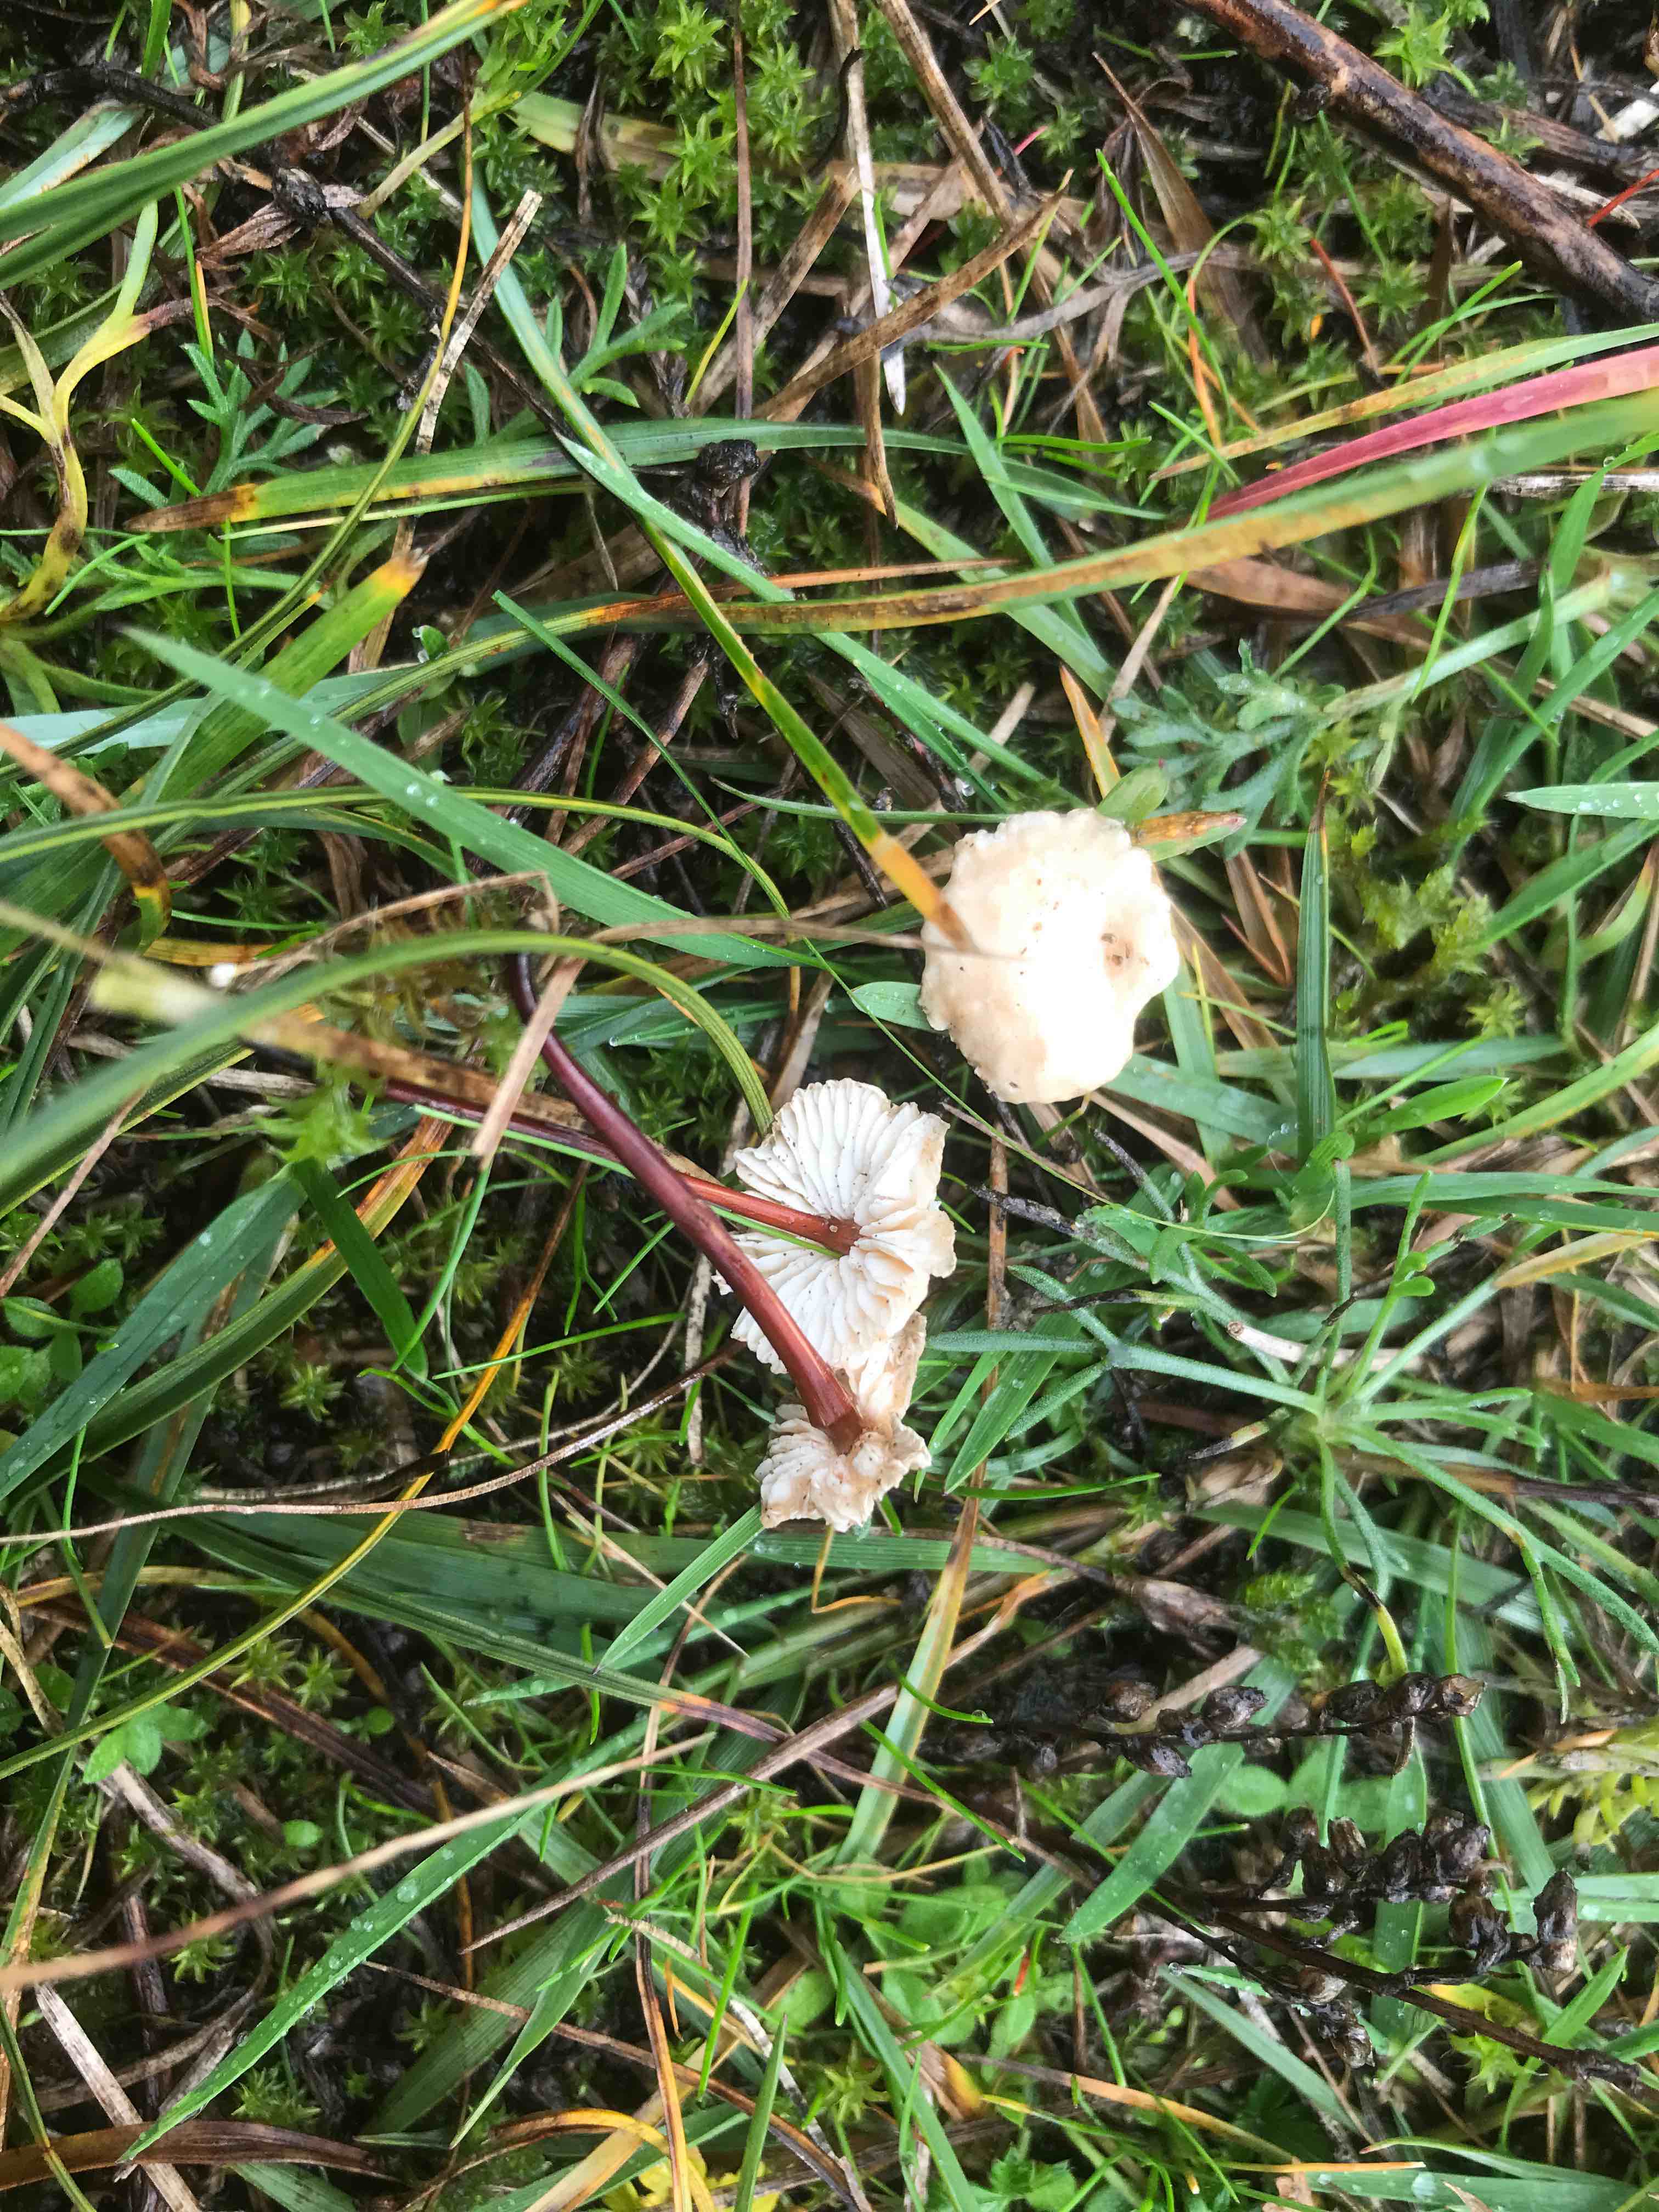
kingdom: Fungi
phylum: Basidiomycota
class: Agaricomycetes
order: Agaricales
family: Omphalotaceae
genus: Mycetinis
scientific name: Mycetinis scorodonius
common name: lille løghat
